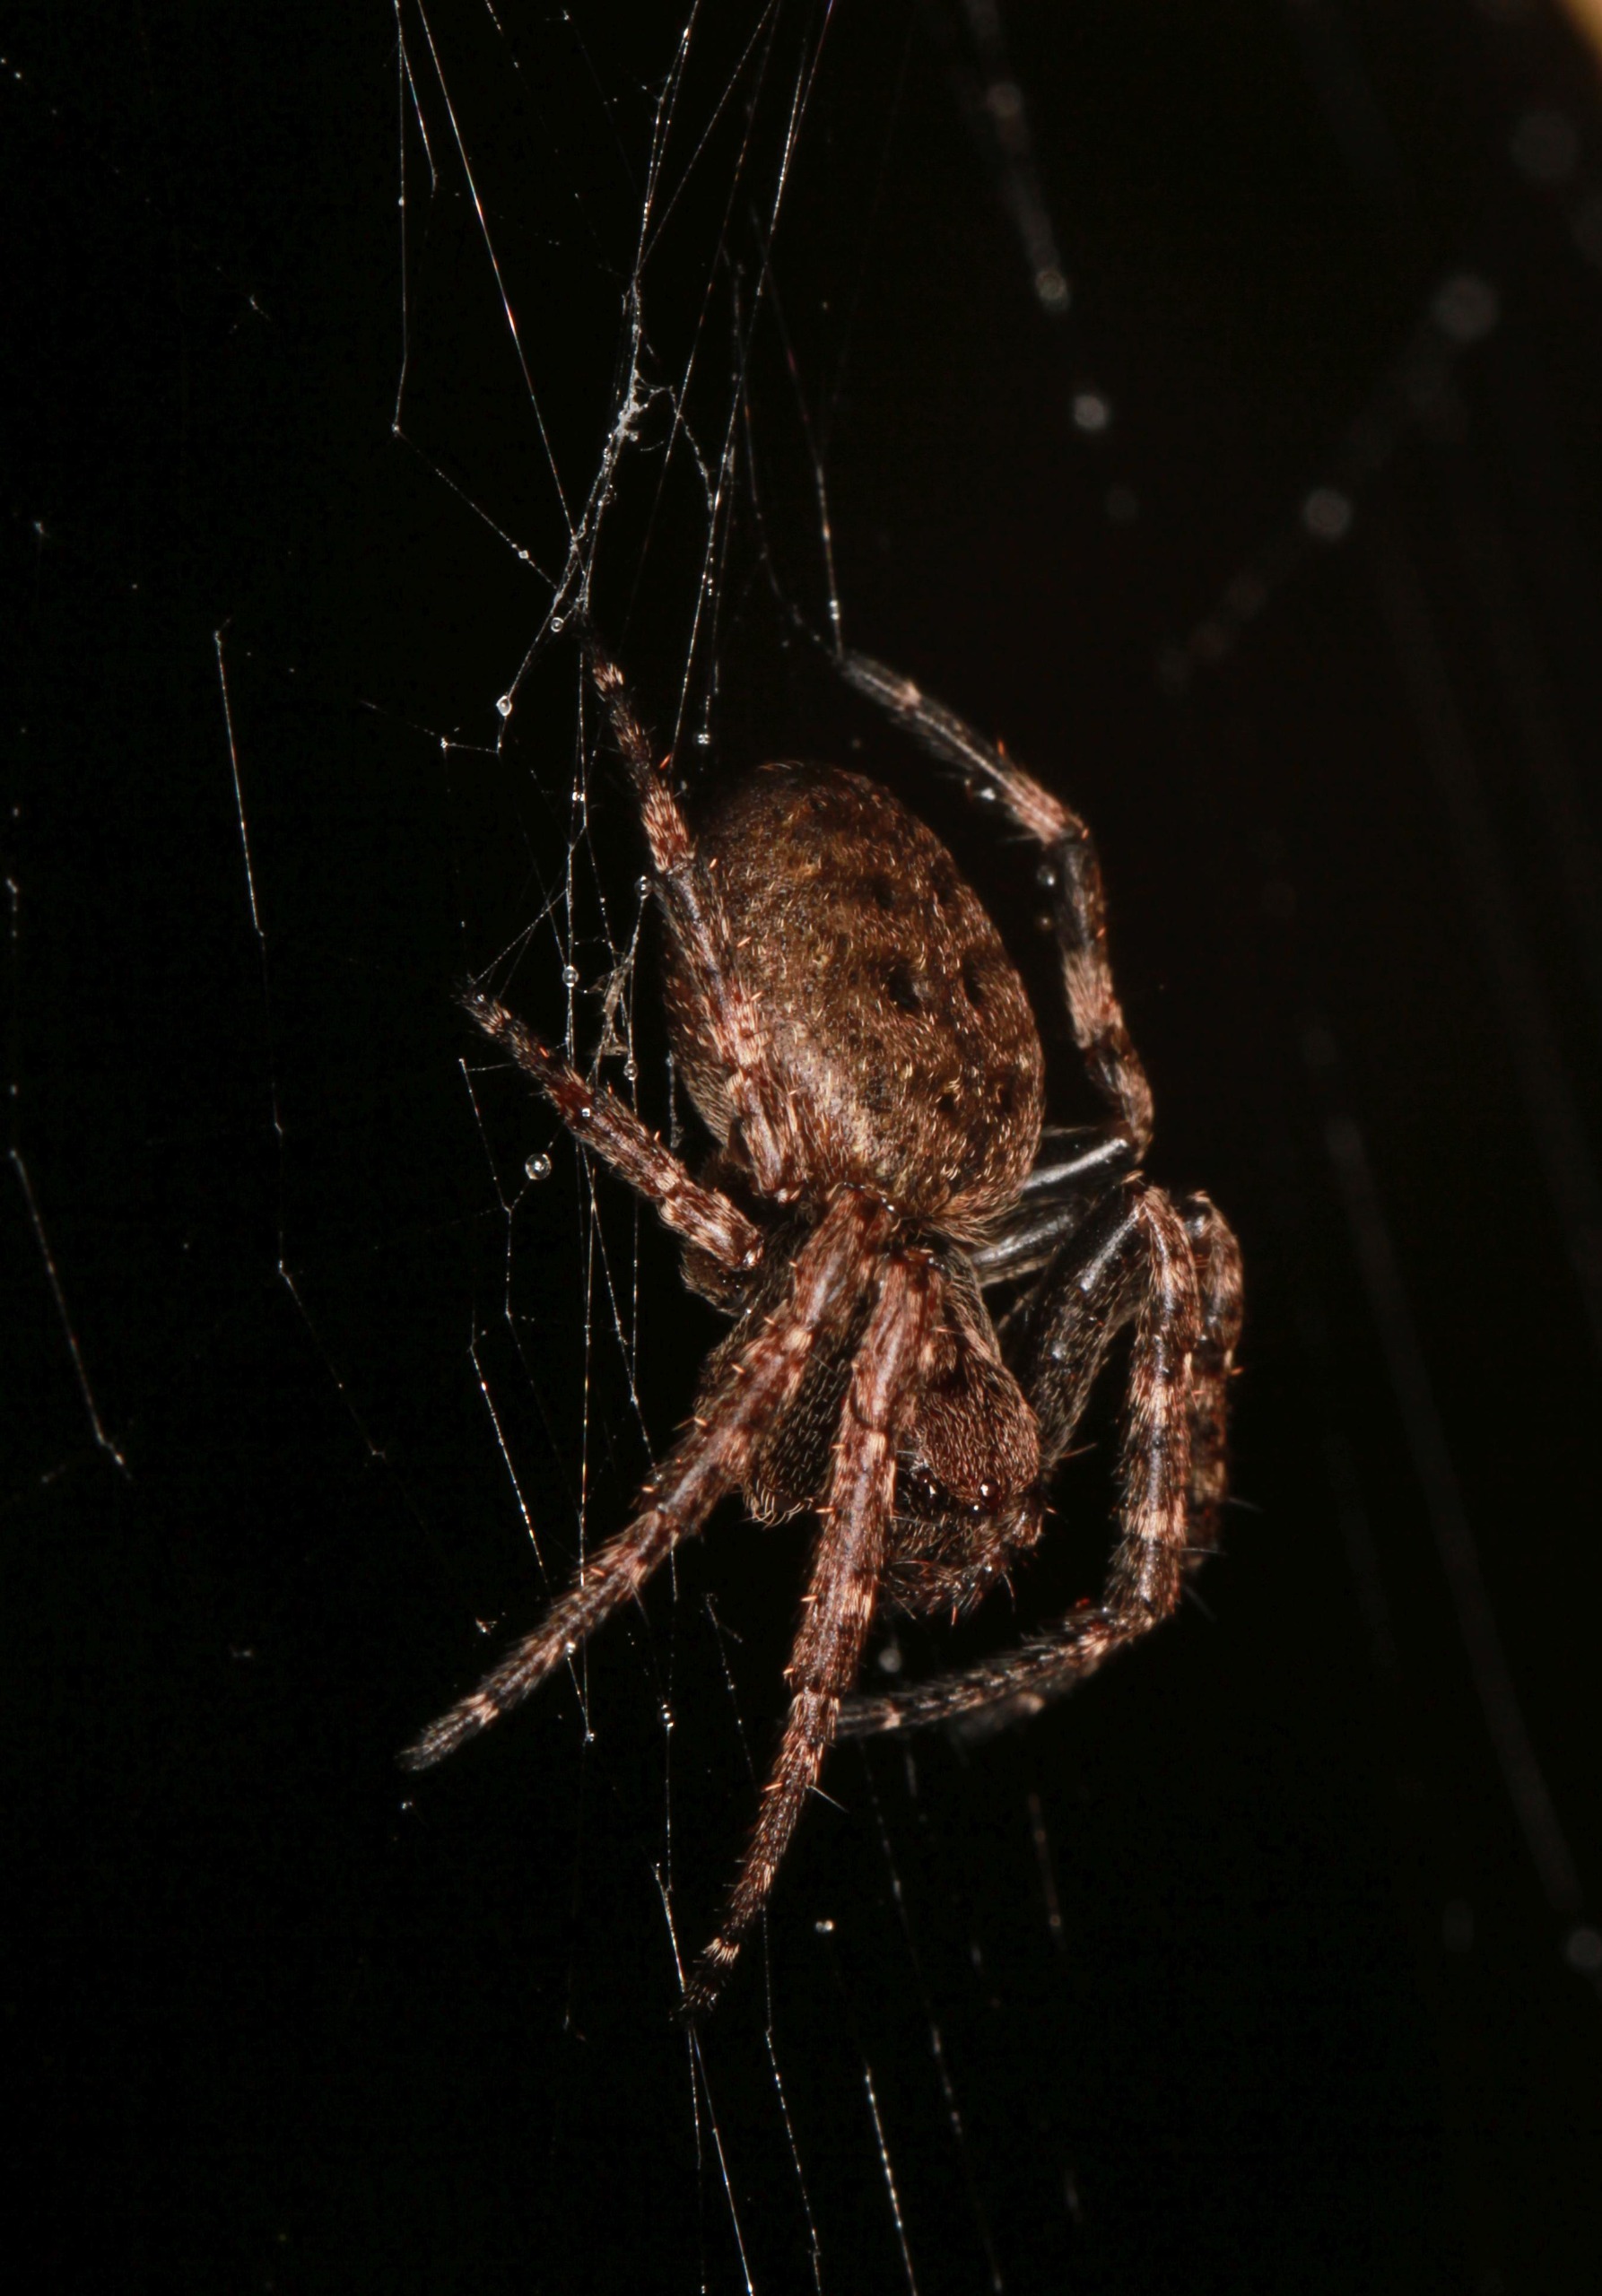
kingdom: Animalia
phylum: Arthropoda
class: Arachnida
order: Araneae
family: Araneidae
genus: Nuctenea
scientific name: Nuctenea umbratica
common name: Flad hjulspinder
